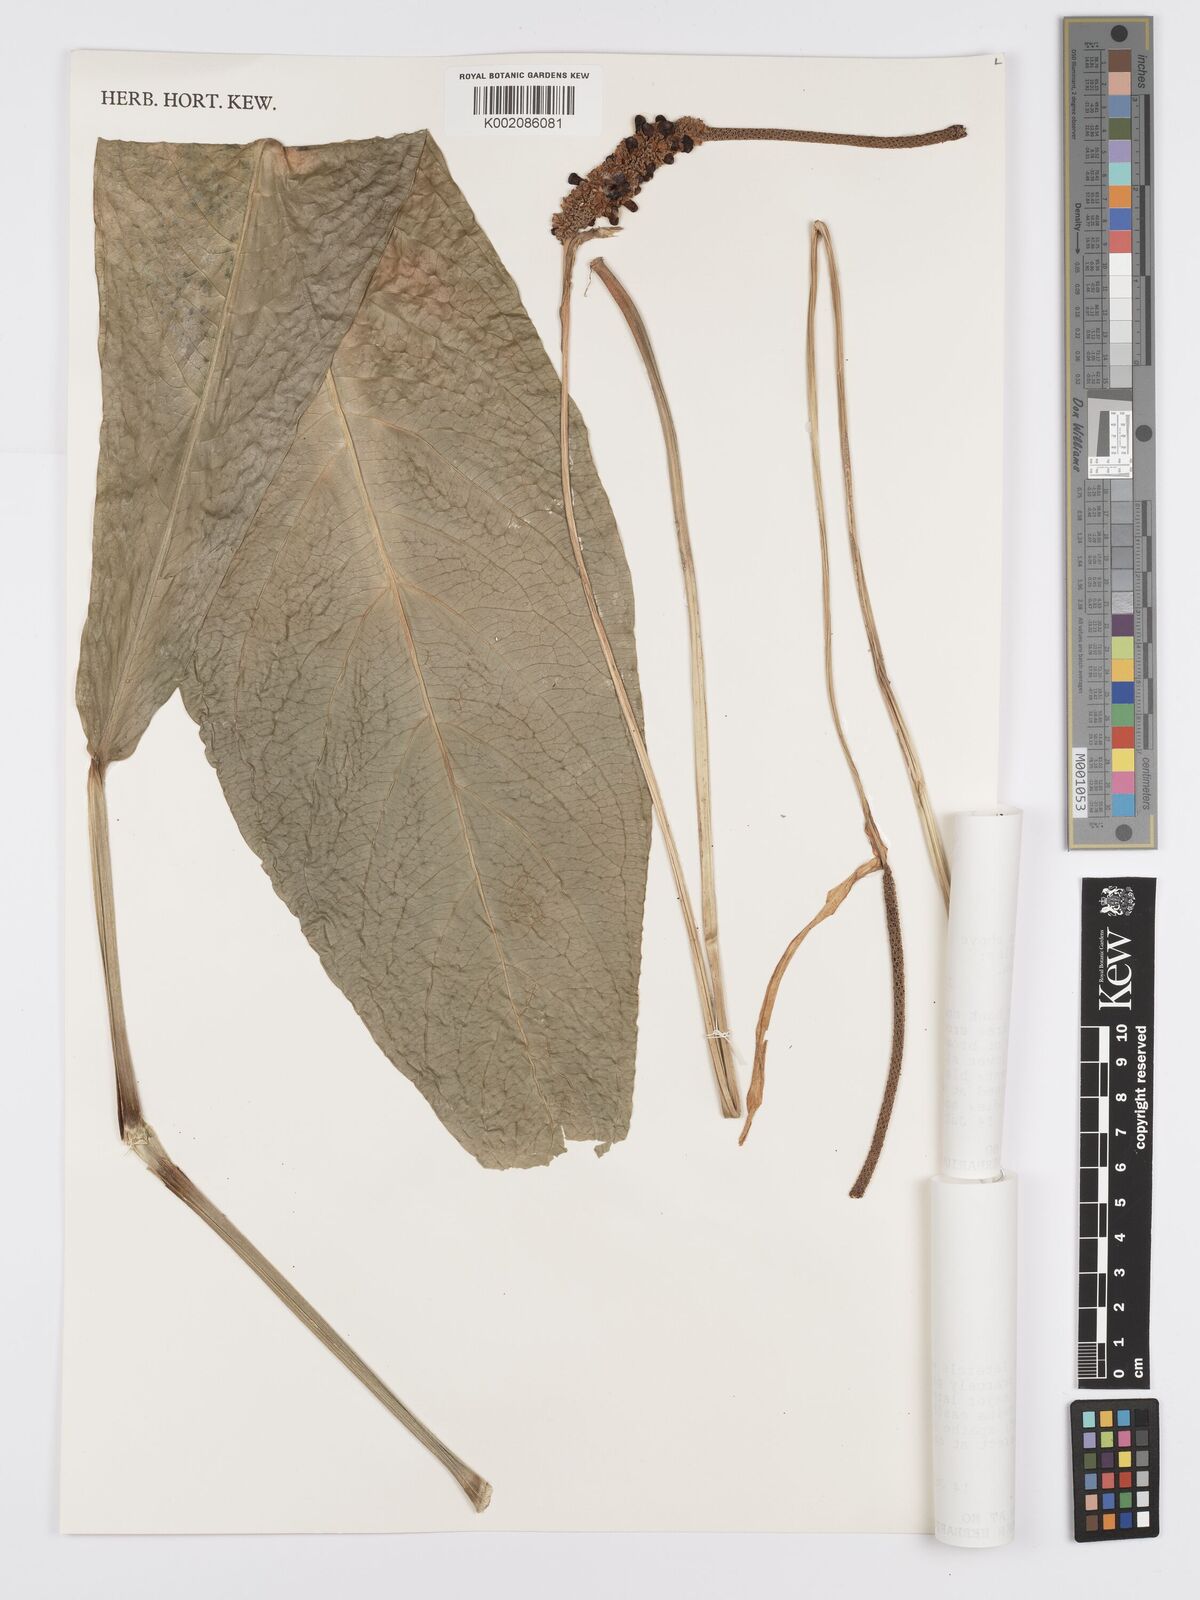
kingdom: Plantae
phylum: Tracheophyta
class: Liliopsida
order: Alismatales
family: Araceae
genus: Anthurium
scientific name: Anthurium fendleri
